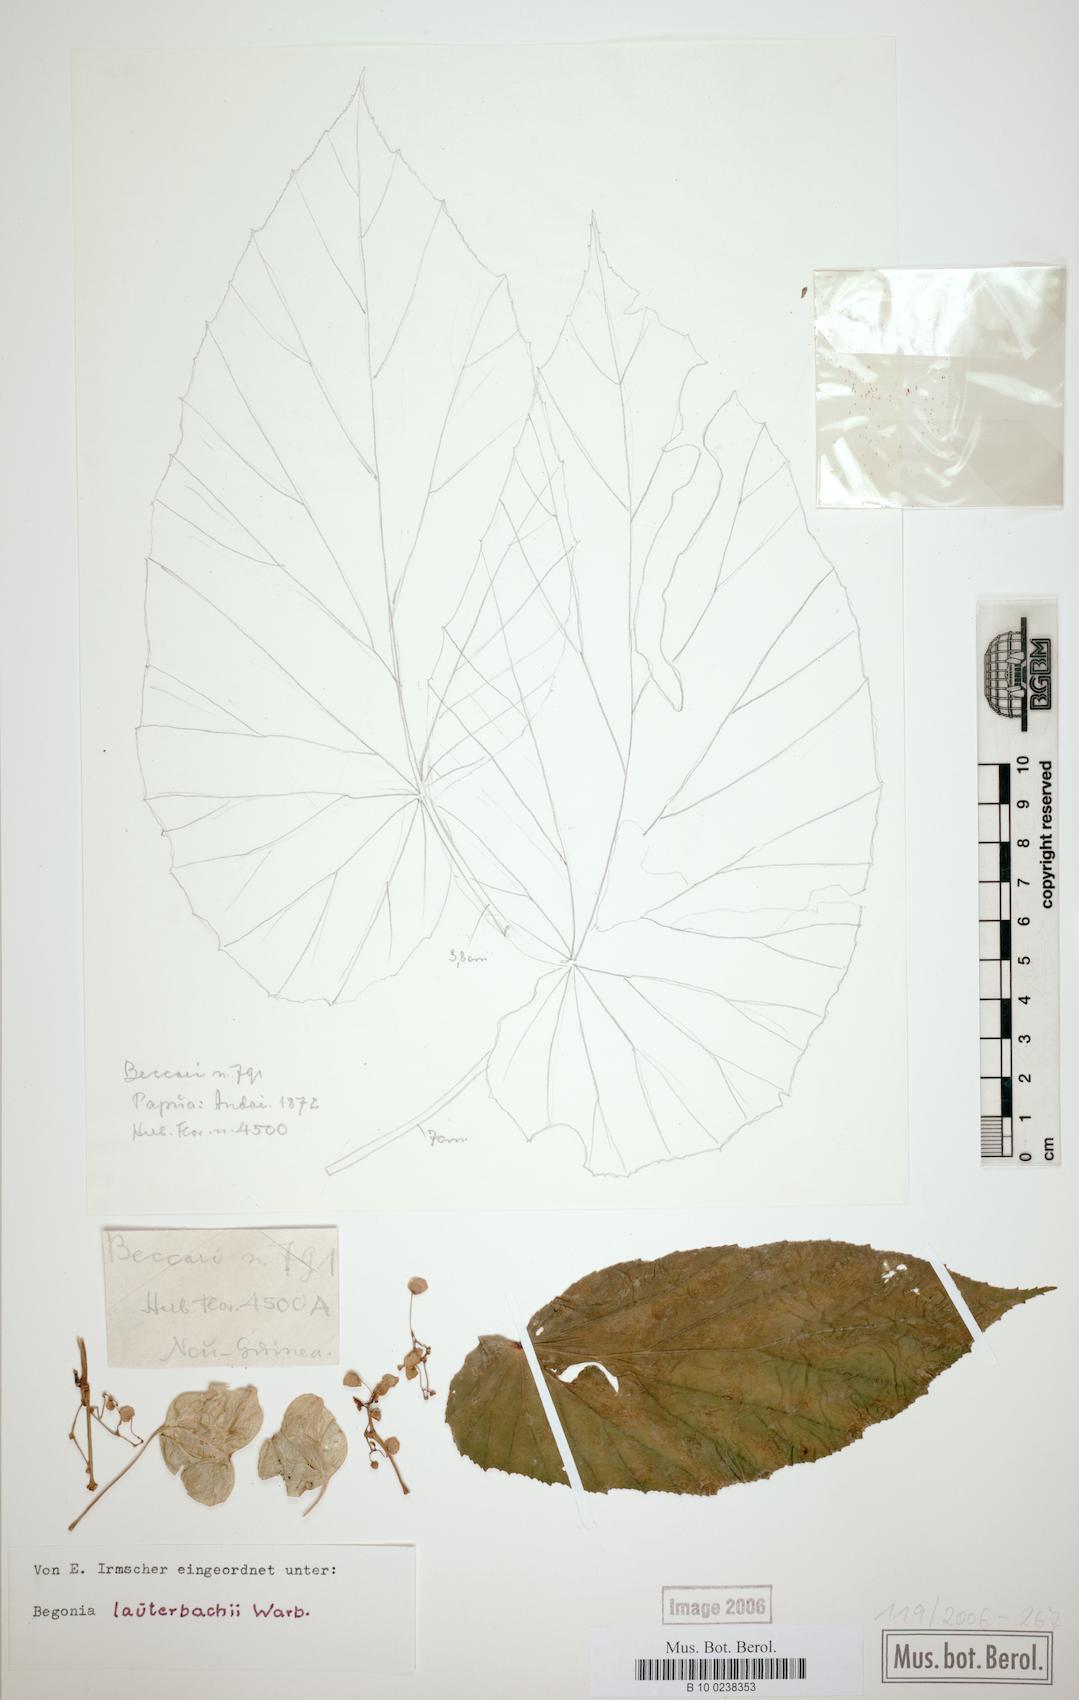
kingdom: Plantae
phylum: Tracheophyta
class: Magnoliopsida
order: Cucurbitales
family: Begoniaceae
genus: Begonia
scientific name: Begonia lauterbachii
